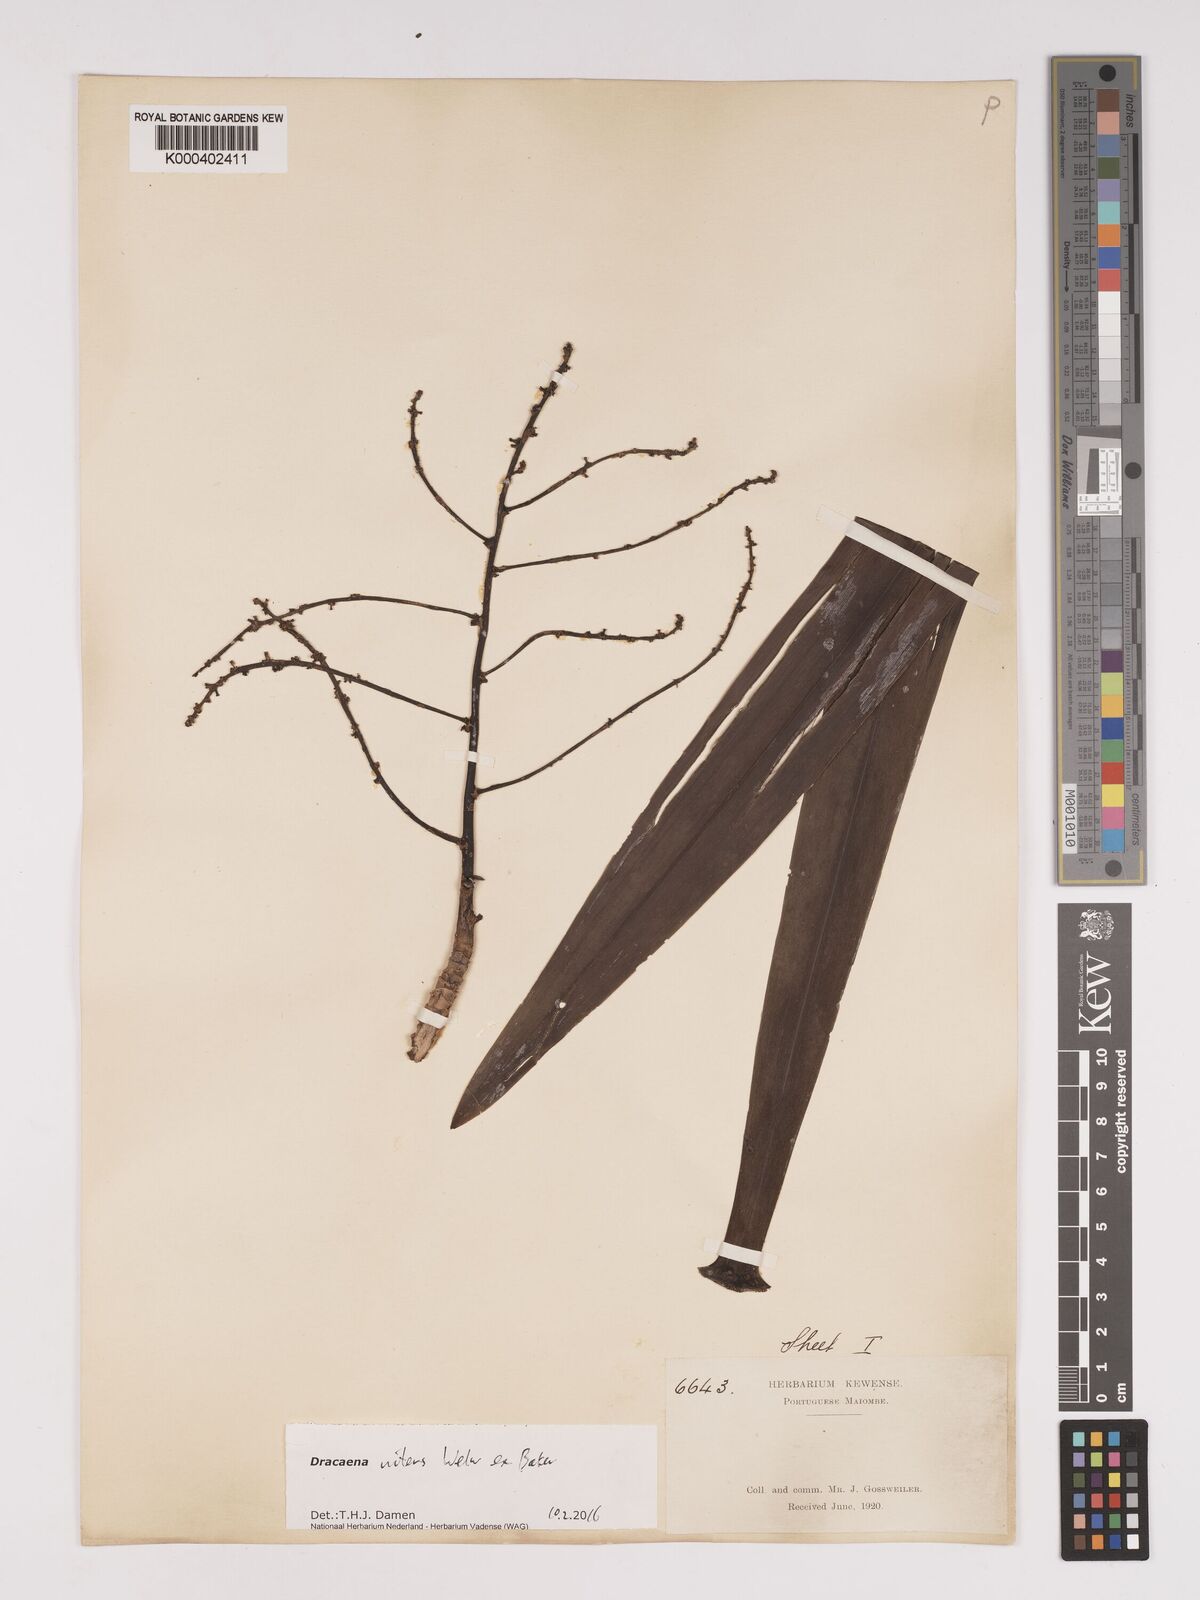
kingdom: Plantae
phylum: Tracheophyta
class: Liliopsida
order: Asparagales
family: Asparagaceae
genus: Dracaena
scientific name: Dracaena nitens
